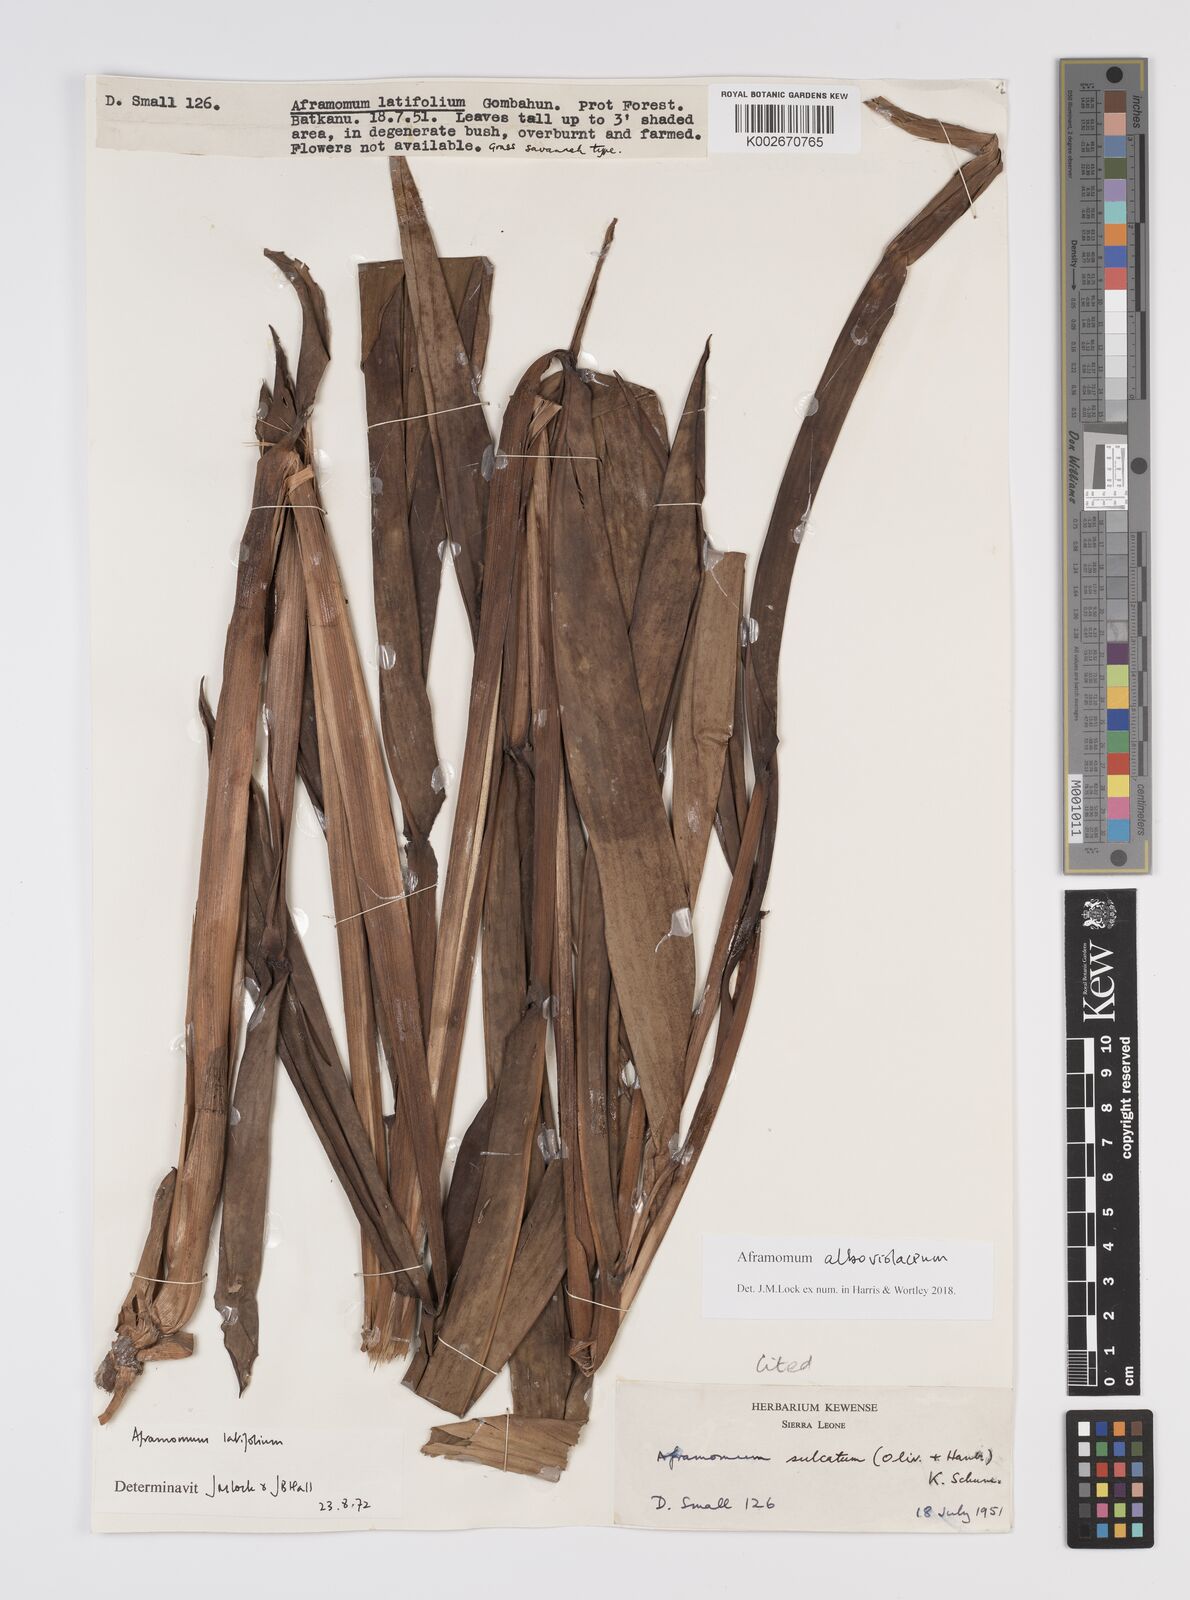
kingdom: Plantae
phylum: Tracheophyta
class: Liliopsida
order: Zingiberales
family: Zingiberaceae
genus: Aframomum
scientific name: Aframomum alboviolaceum
